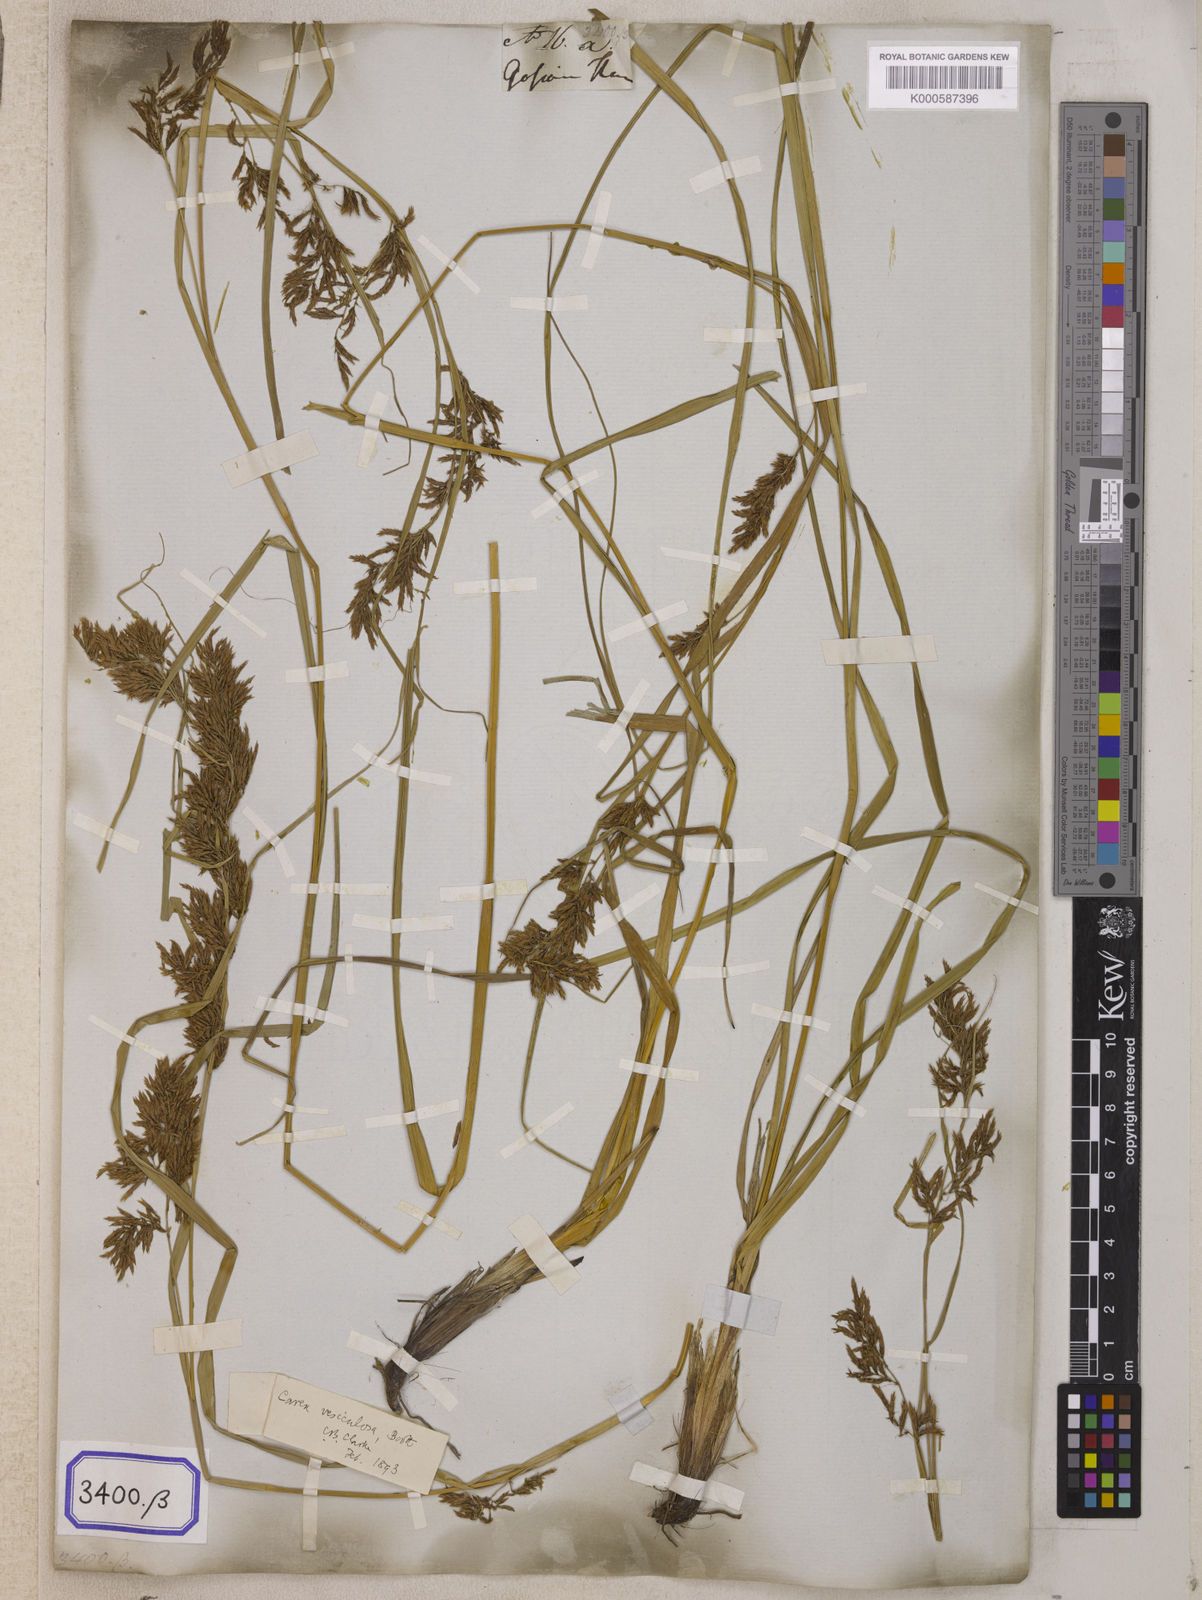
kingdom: Plantae
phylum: Tracheophyta
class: Liliopsida
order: Poales
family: Cyperaceae
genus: Carex
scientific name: Carex
